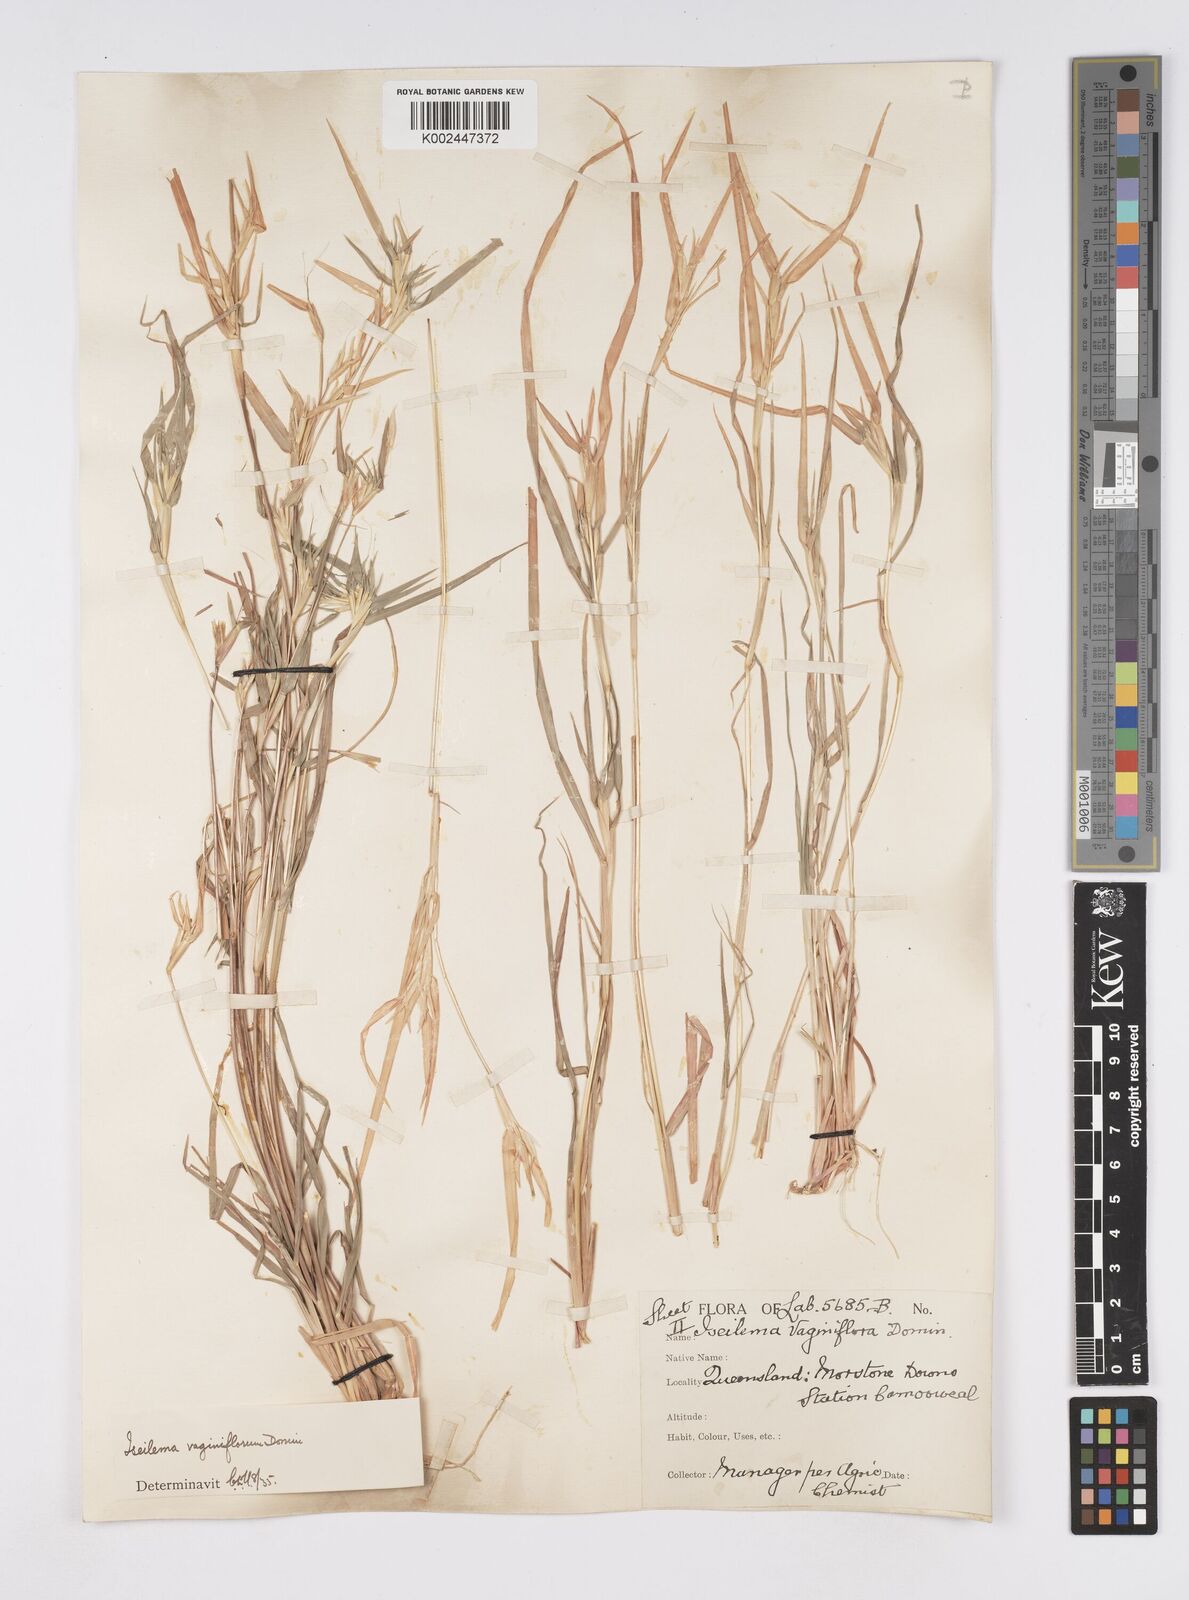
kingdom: Plantae
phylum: Tracheophyta
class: Liliopsida
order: Poales
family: Poaceae
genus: Iseilema
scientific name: Iseilema vaginiflorum
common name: Red flinders grass
